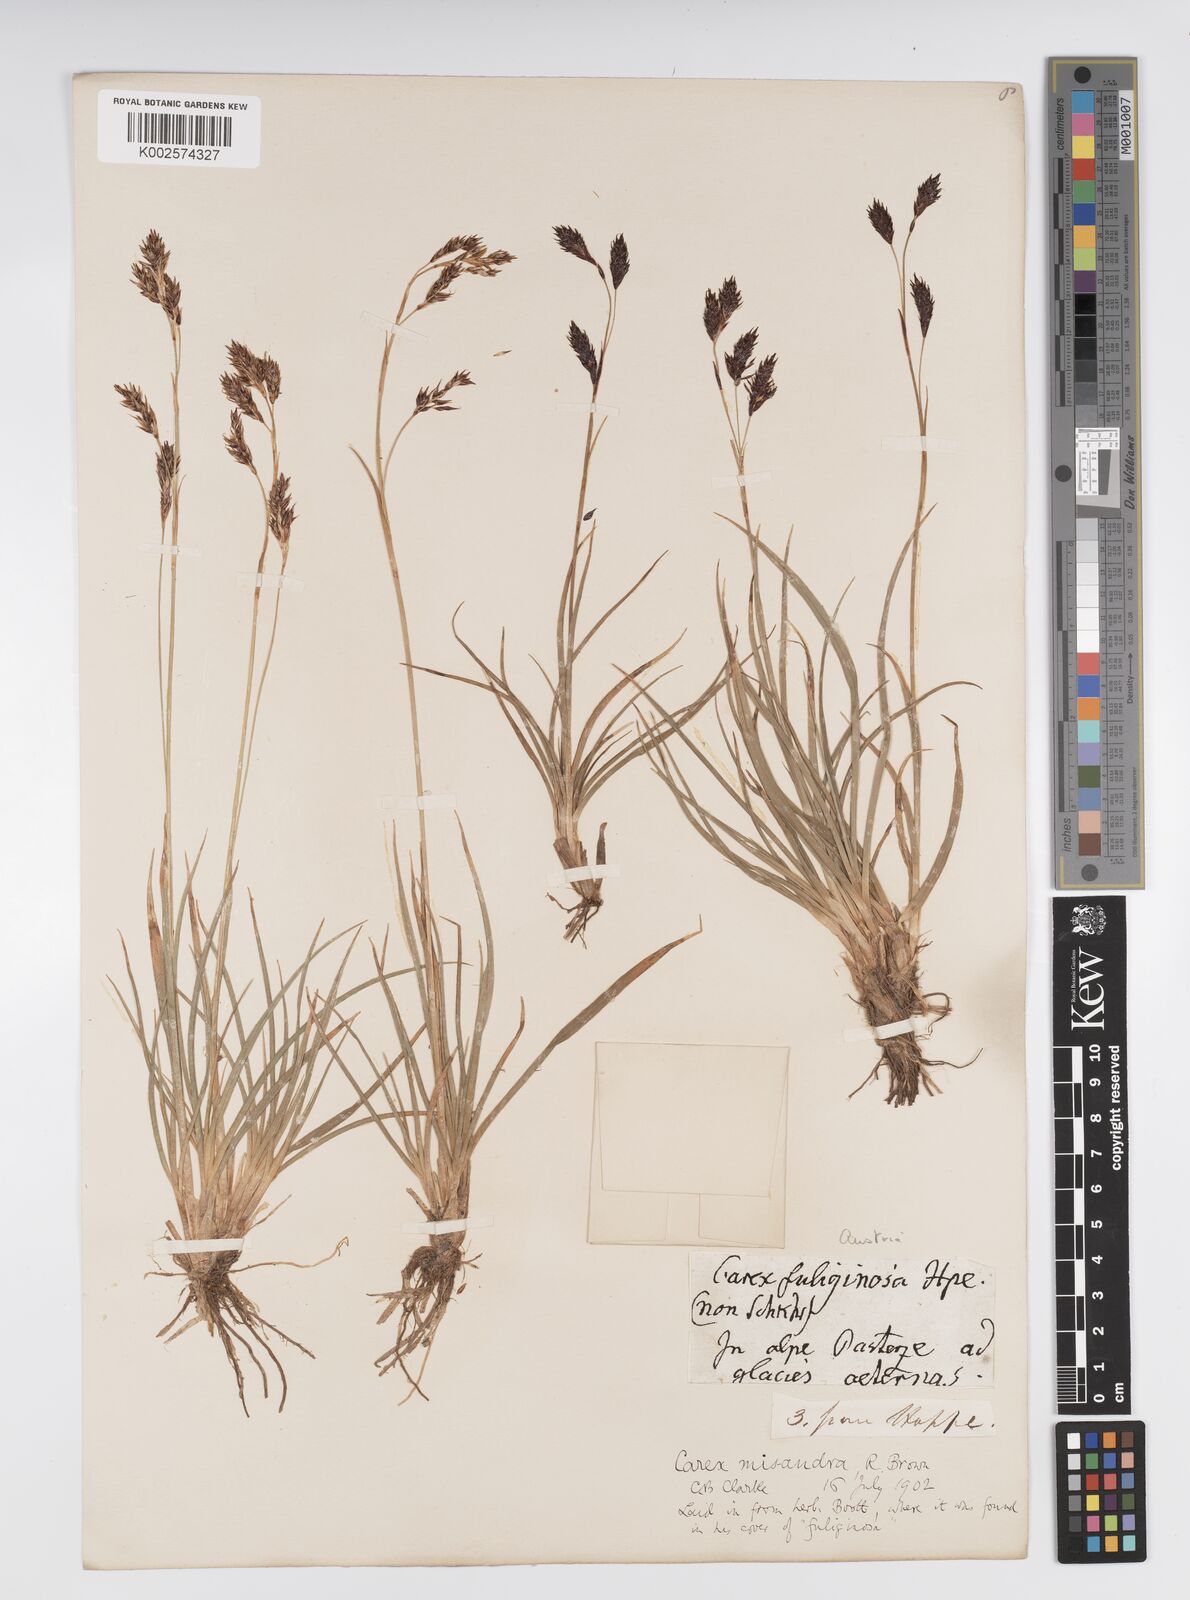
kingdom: Plantae
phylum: Tracheophyta
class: Liliopsida
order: Poales
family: Cyperaceae
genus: Carex
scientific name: Carex fuliginosa
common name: Few-flowered sedge
